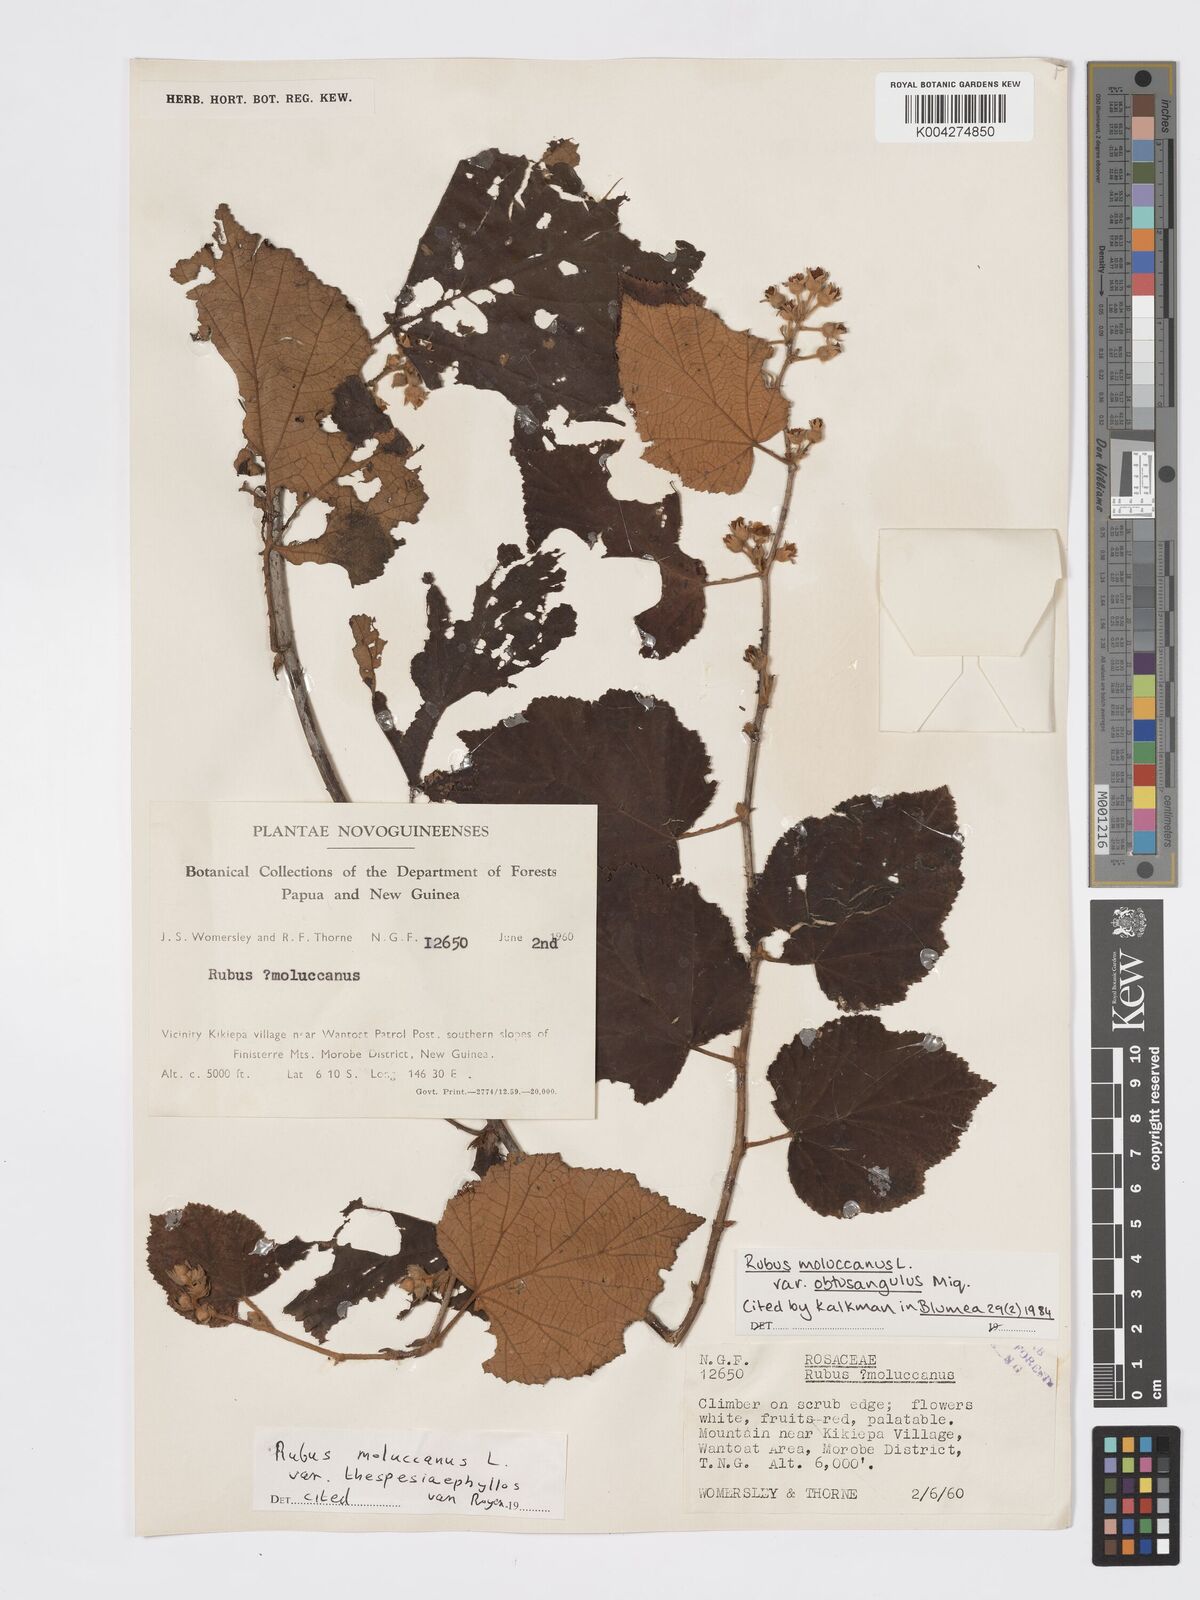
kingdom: Plantae
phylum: Tracheophyta
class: Magnoliopsida
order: Rosales
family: Rosaceae
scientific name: Rosaceae
